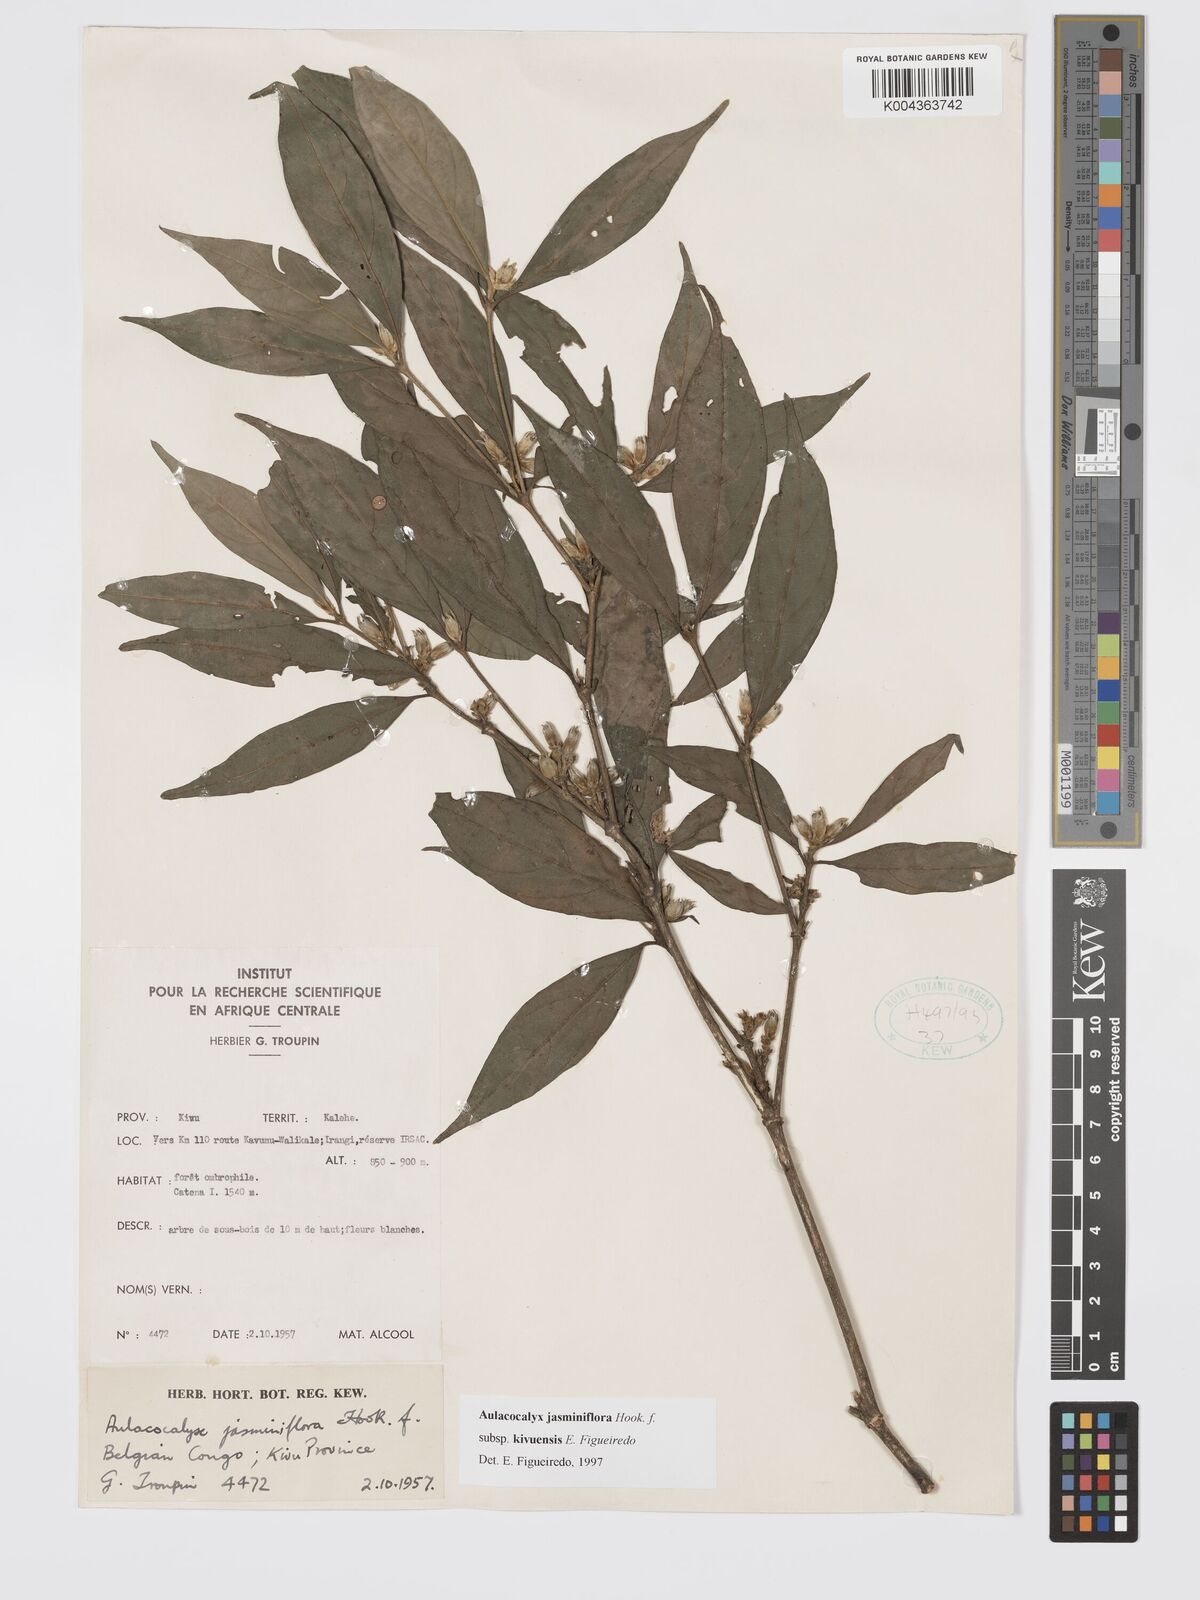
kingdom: Plantae
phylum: Tracheophyta
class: Magnoliopsida
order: Gentianales
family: Rubiaceae
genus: Aulacocalyx
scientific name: Aulacocalyx jasminiflora
